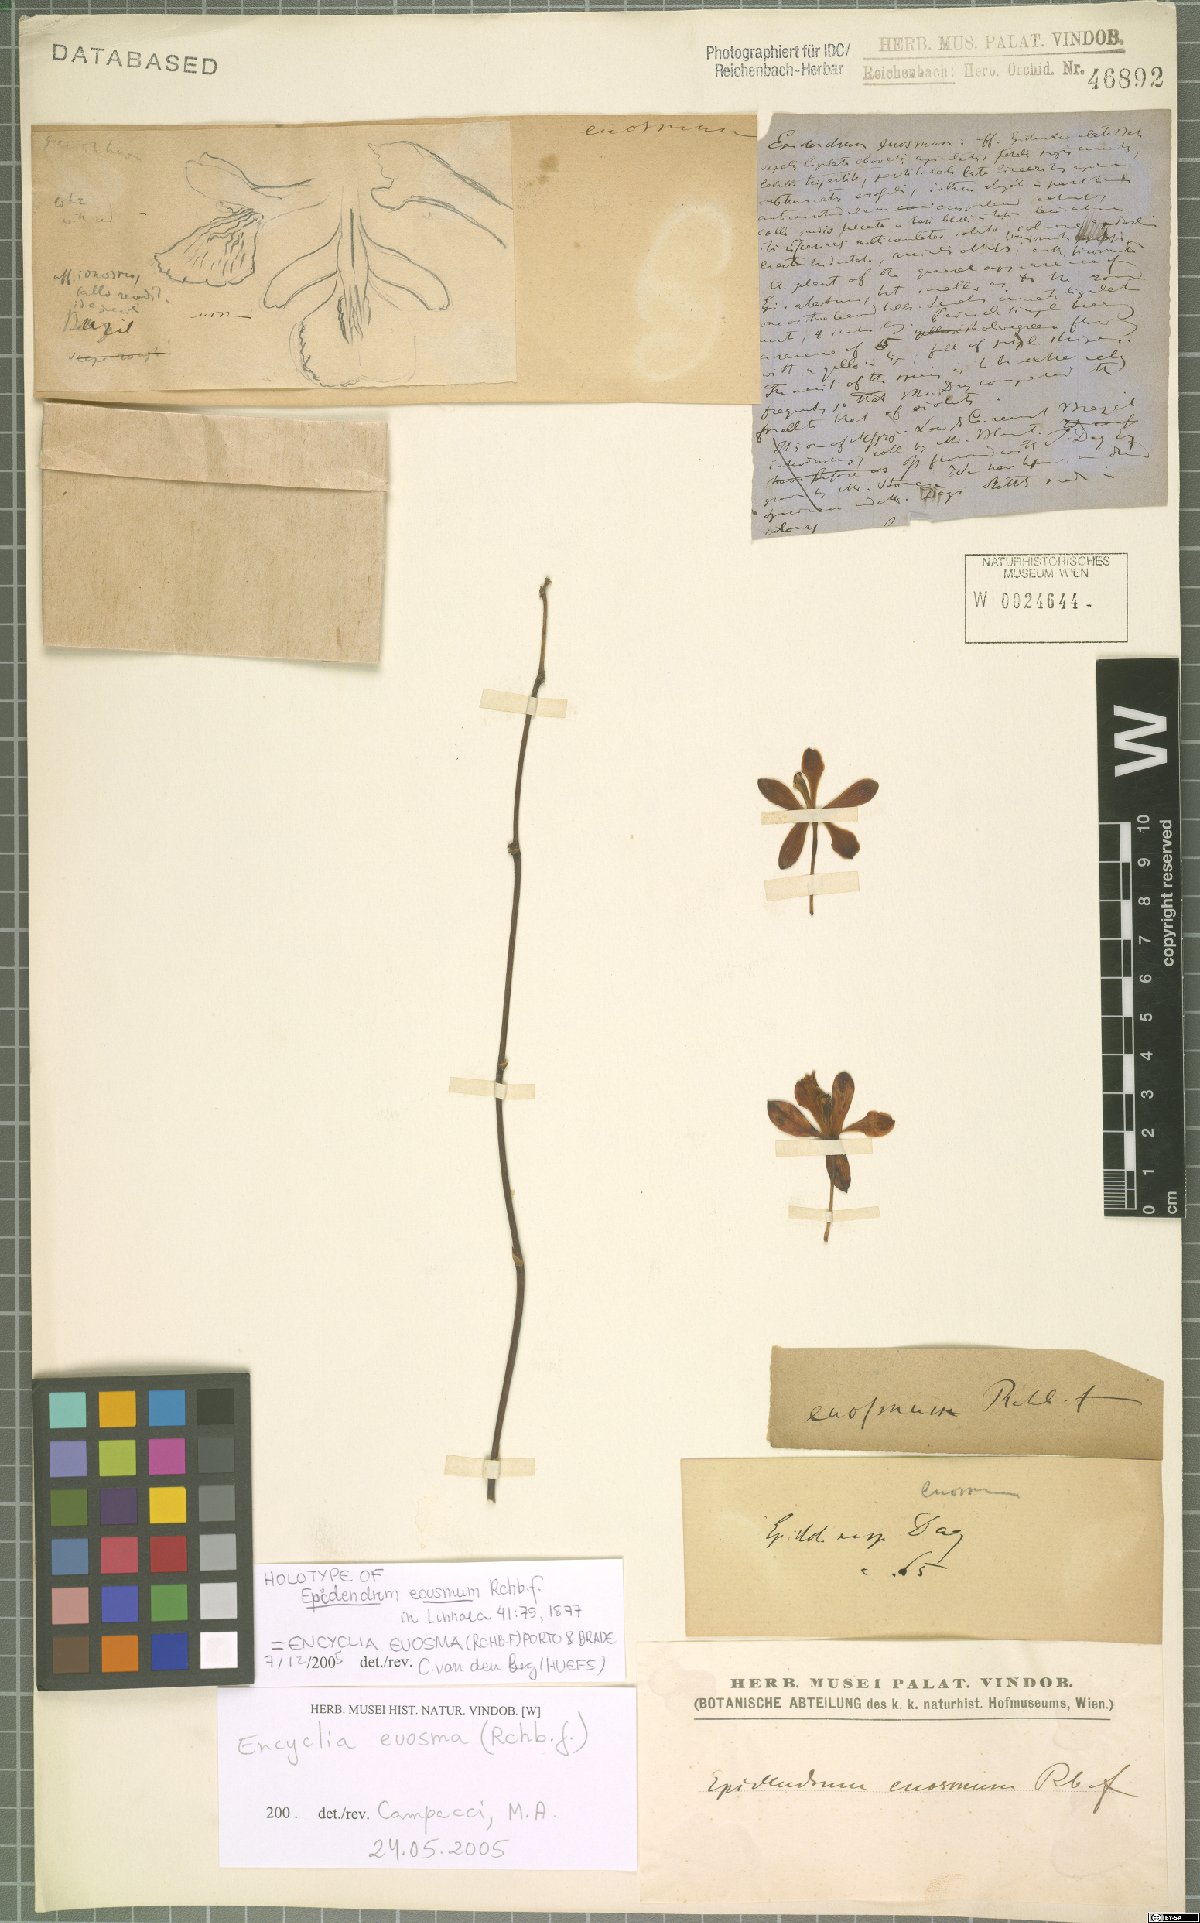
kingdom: Plantae
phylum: Tracheophyta
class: Liliopsida
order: Asparagales
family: Orchidaceae
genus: Encyclia
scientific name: Encyclia ionosma
